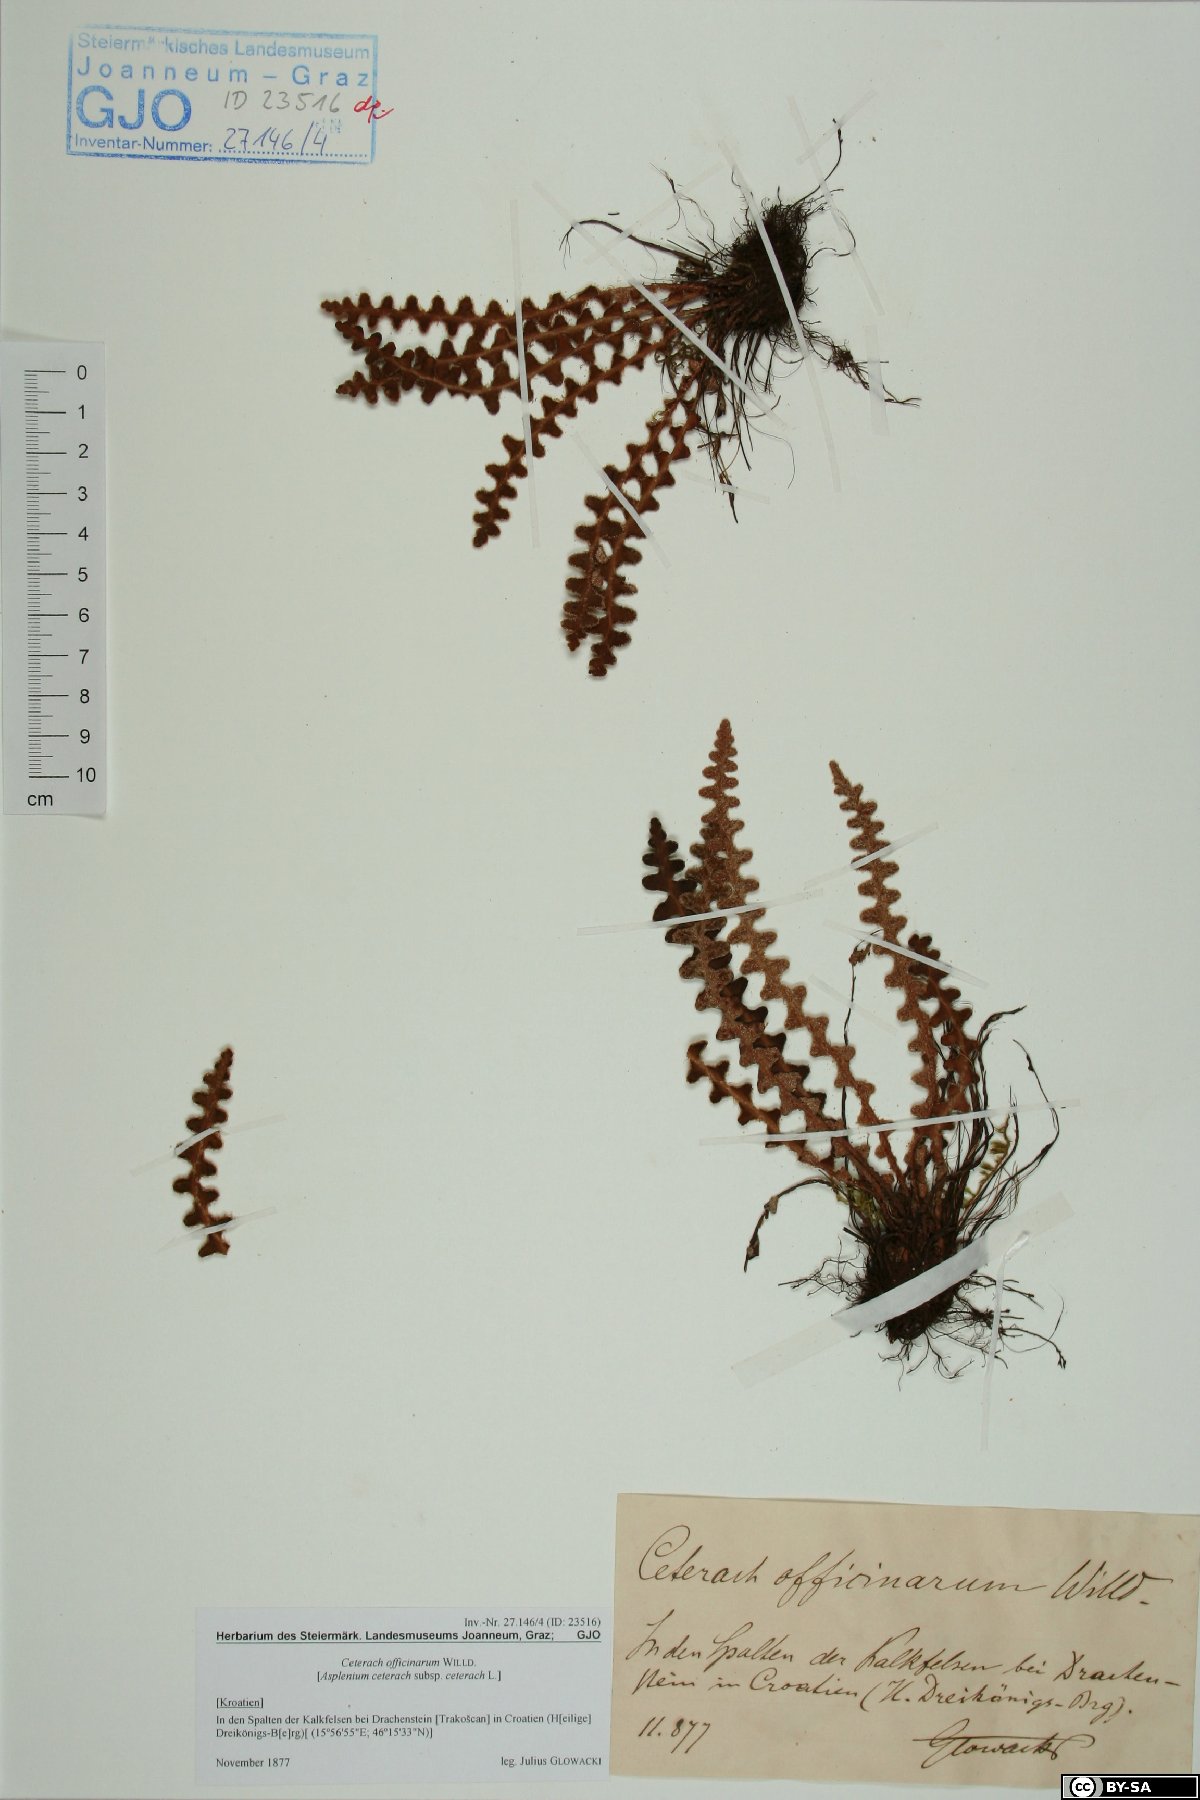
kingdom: Plantae
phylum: Tracheophyta
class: Polypodiopsida
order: Polypodiales
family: Aspleniaceae
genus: Asplenium
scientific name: Asplenium ceterach
